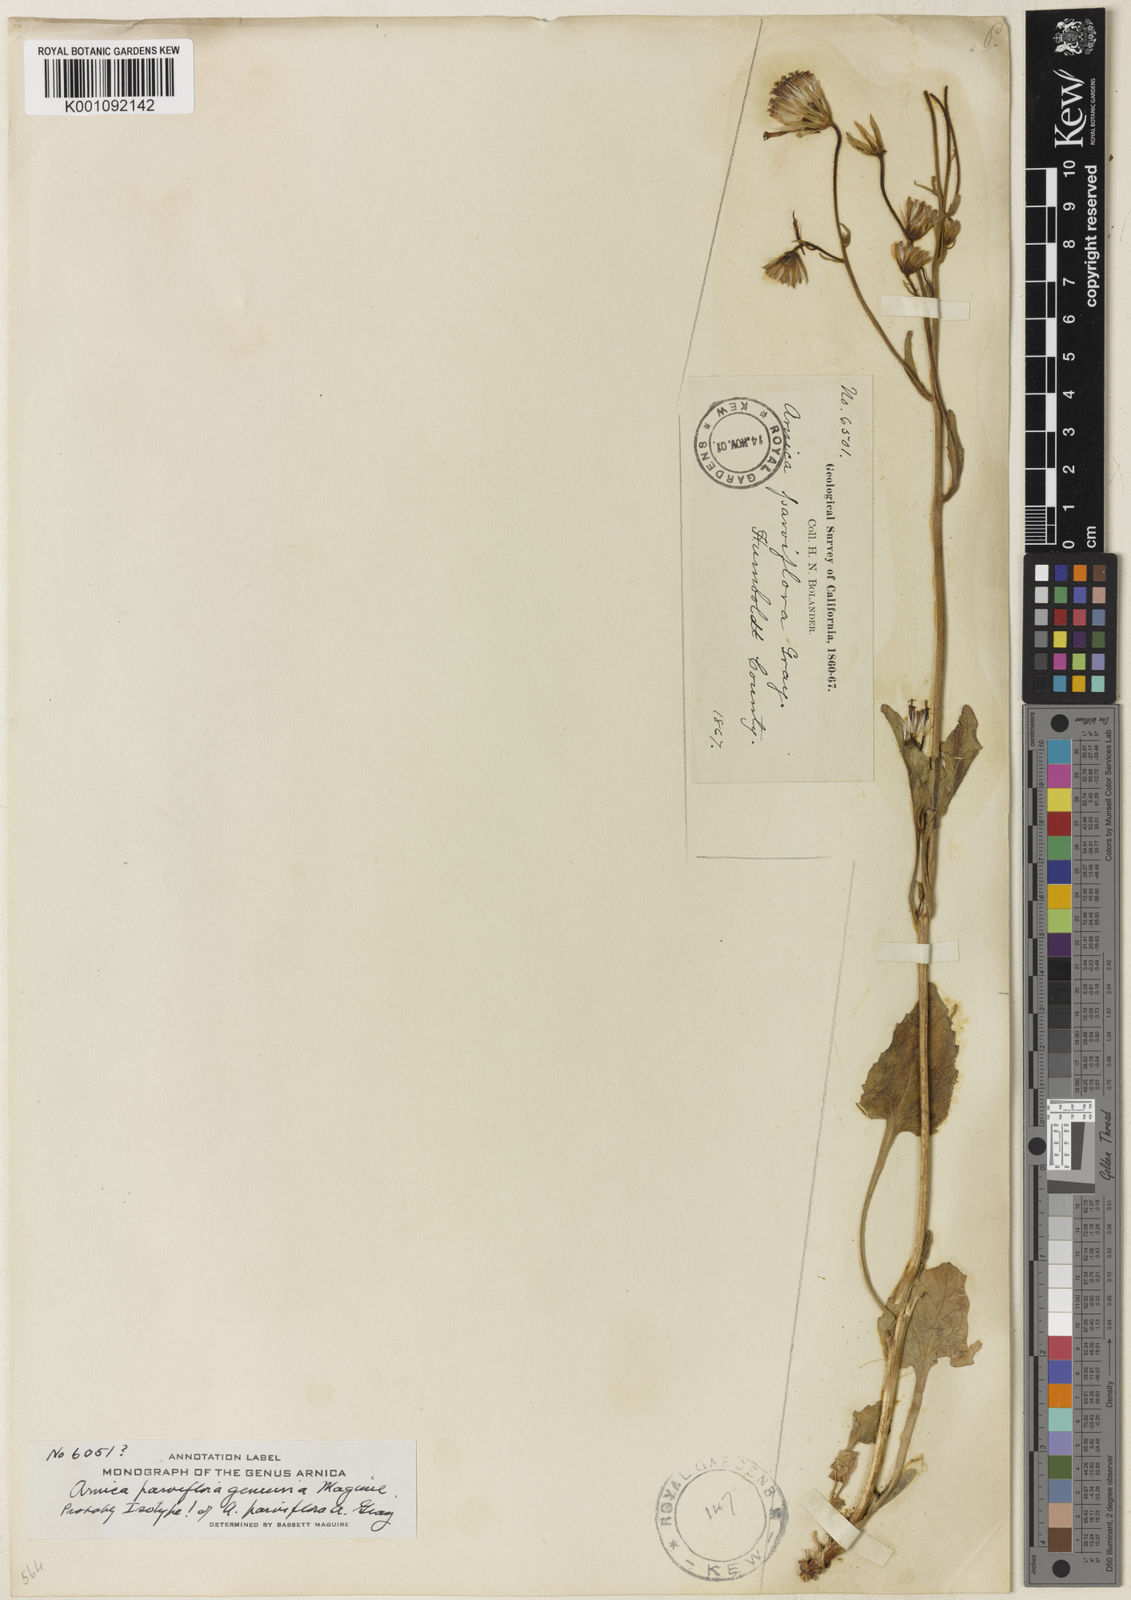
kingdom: Plantae
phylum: Tracheophyta
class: Magnoliopsida
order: Asterales
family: Asteraceae
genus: Arnica
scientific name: Arnica discoidea
